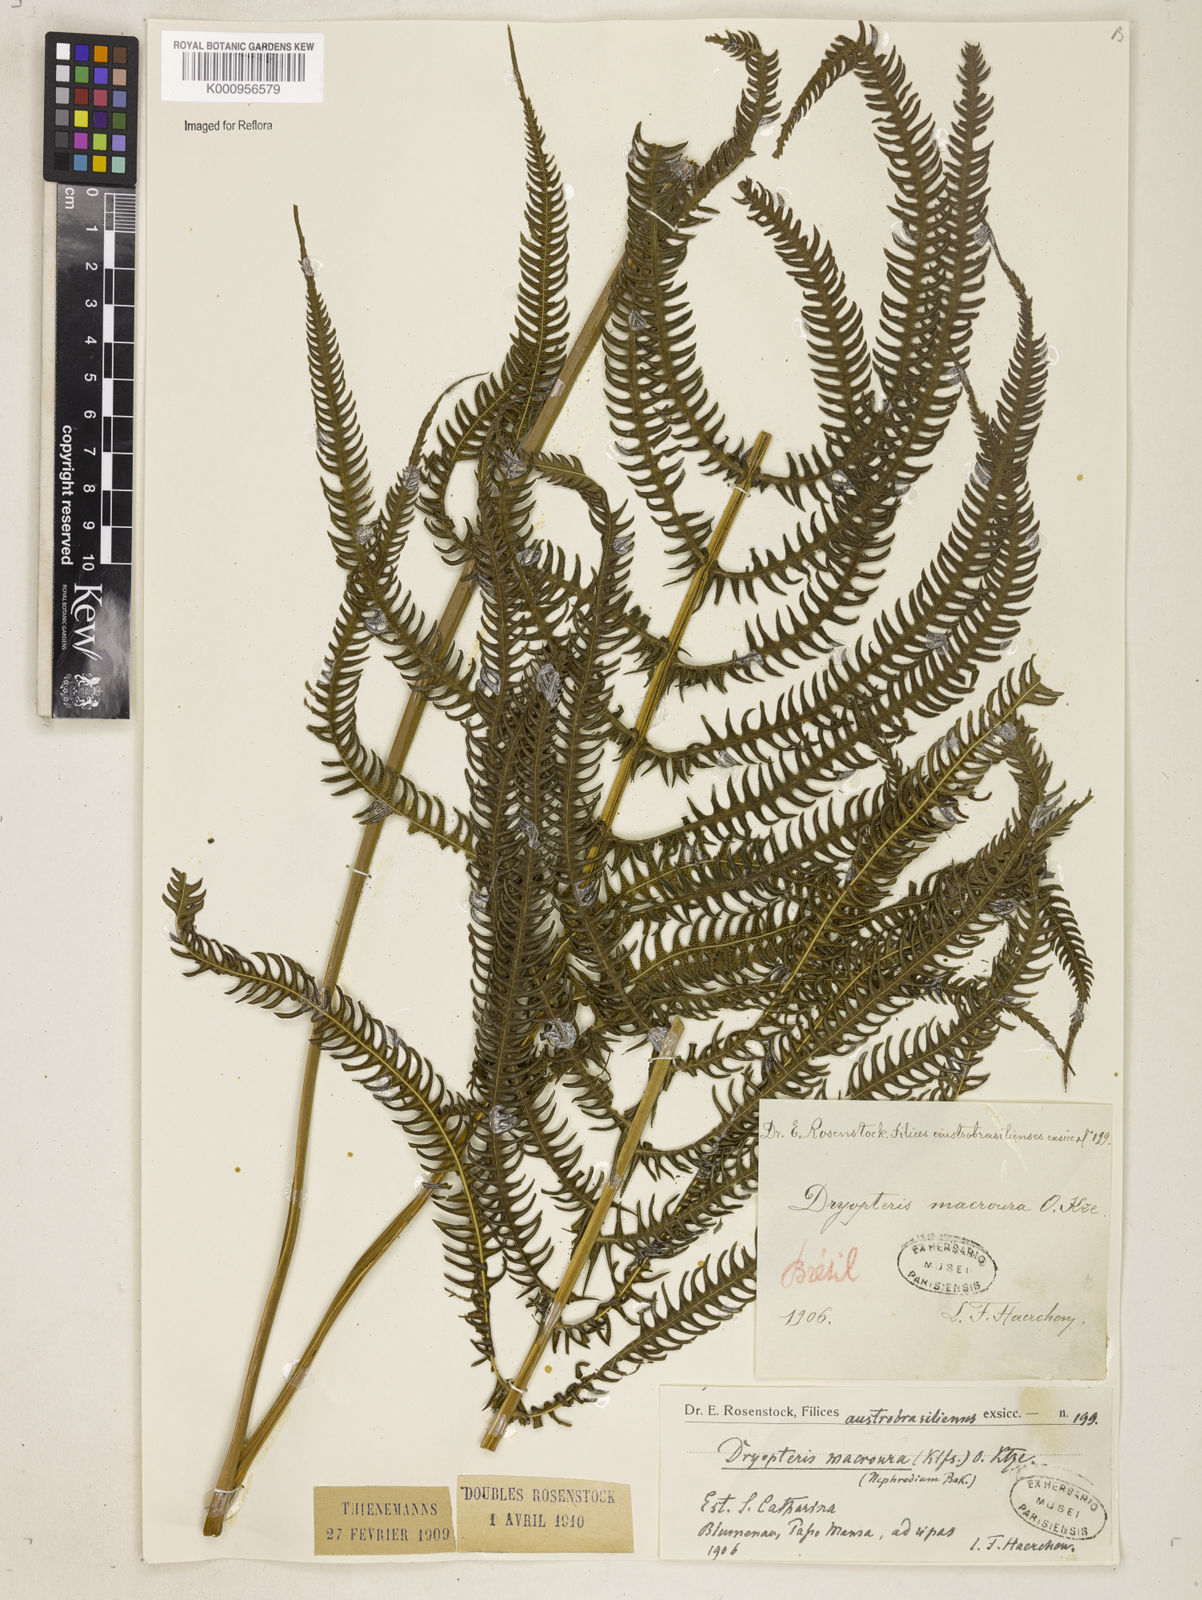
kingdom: Plantae
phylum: Tracheophyta
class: Polypodiopsida
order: Polypodiales
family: Thelypteridaceae
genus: Pelazoneuron
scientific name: Pelazoneuron patens
